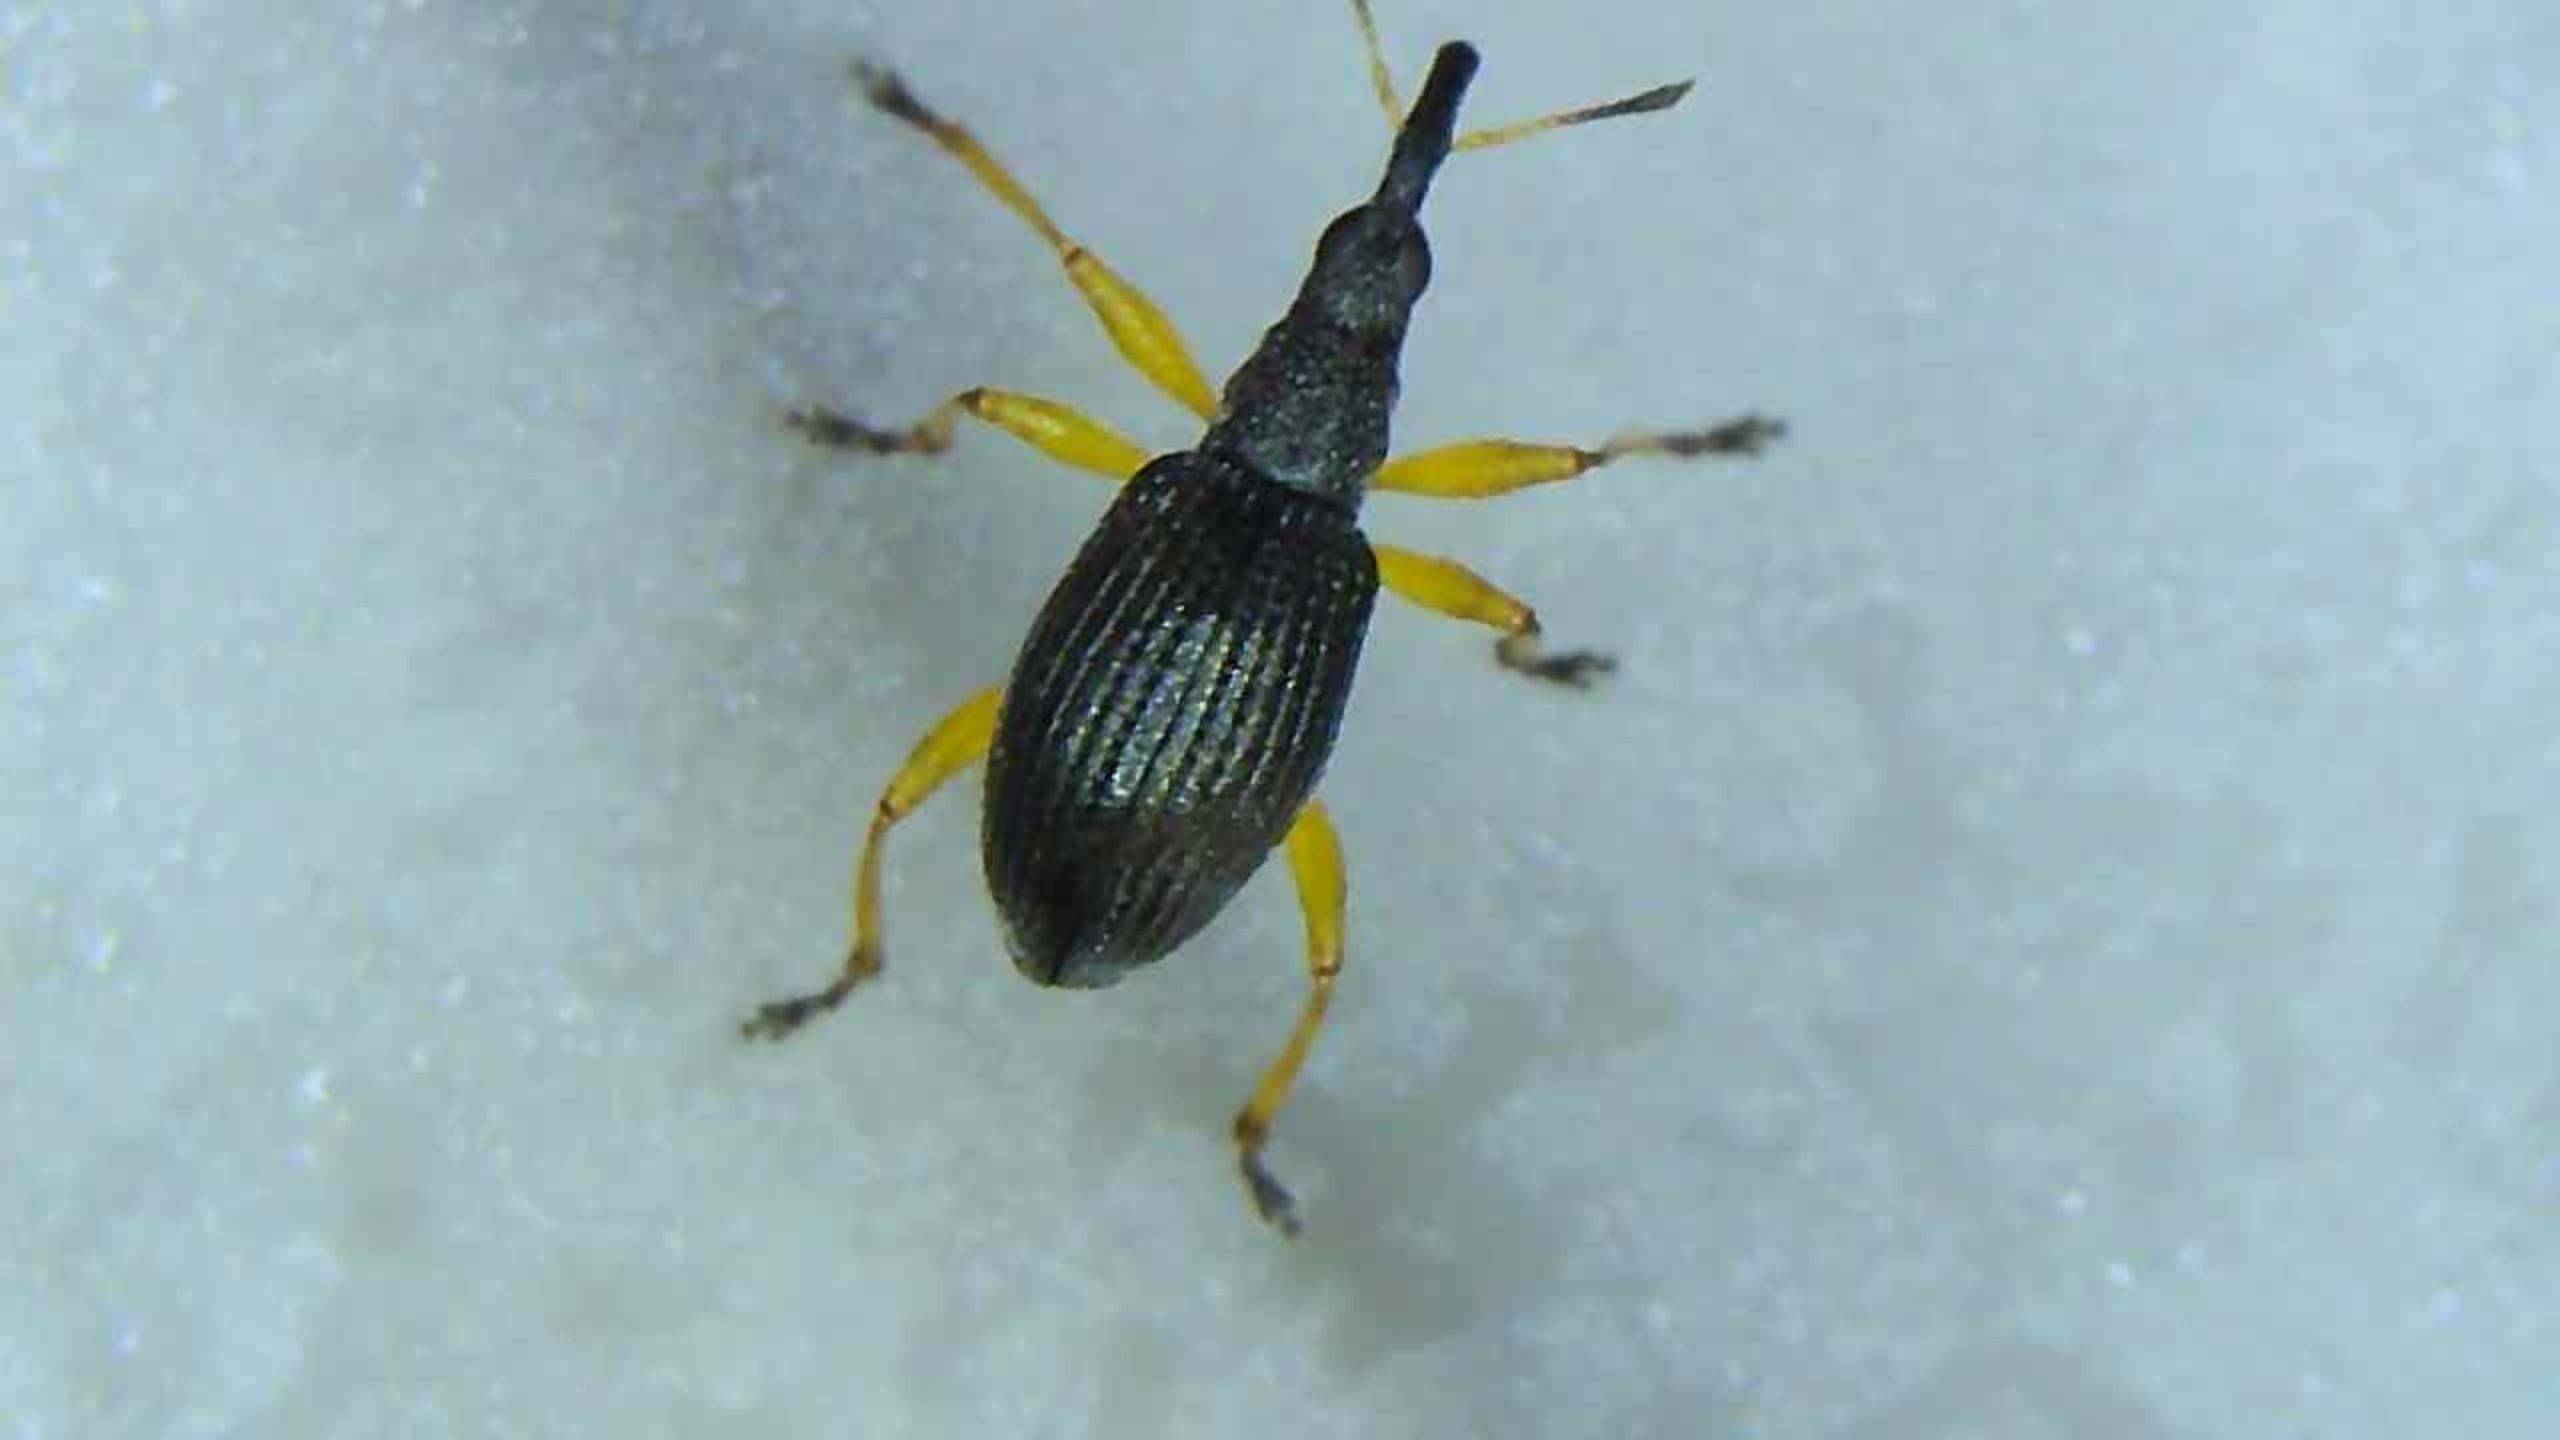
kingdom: Animalia
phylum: Arthropoda
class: Insecta
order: Coleoptera
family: Apionidae
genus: Protapion
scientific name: Protapion fulvipes
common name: Hvidkløversnudebille
